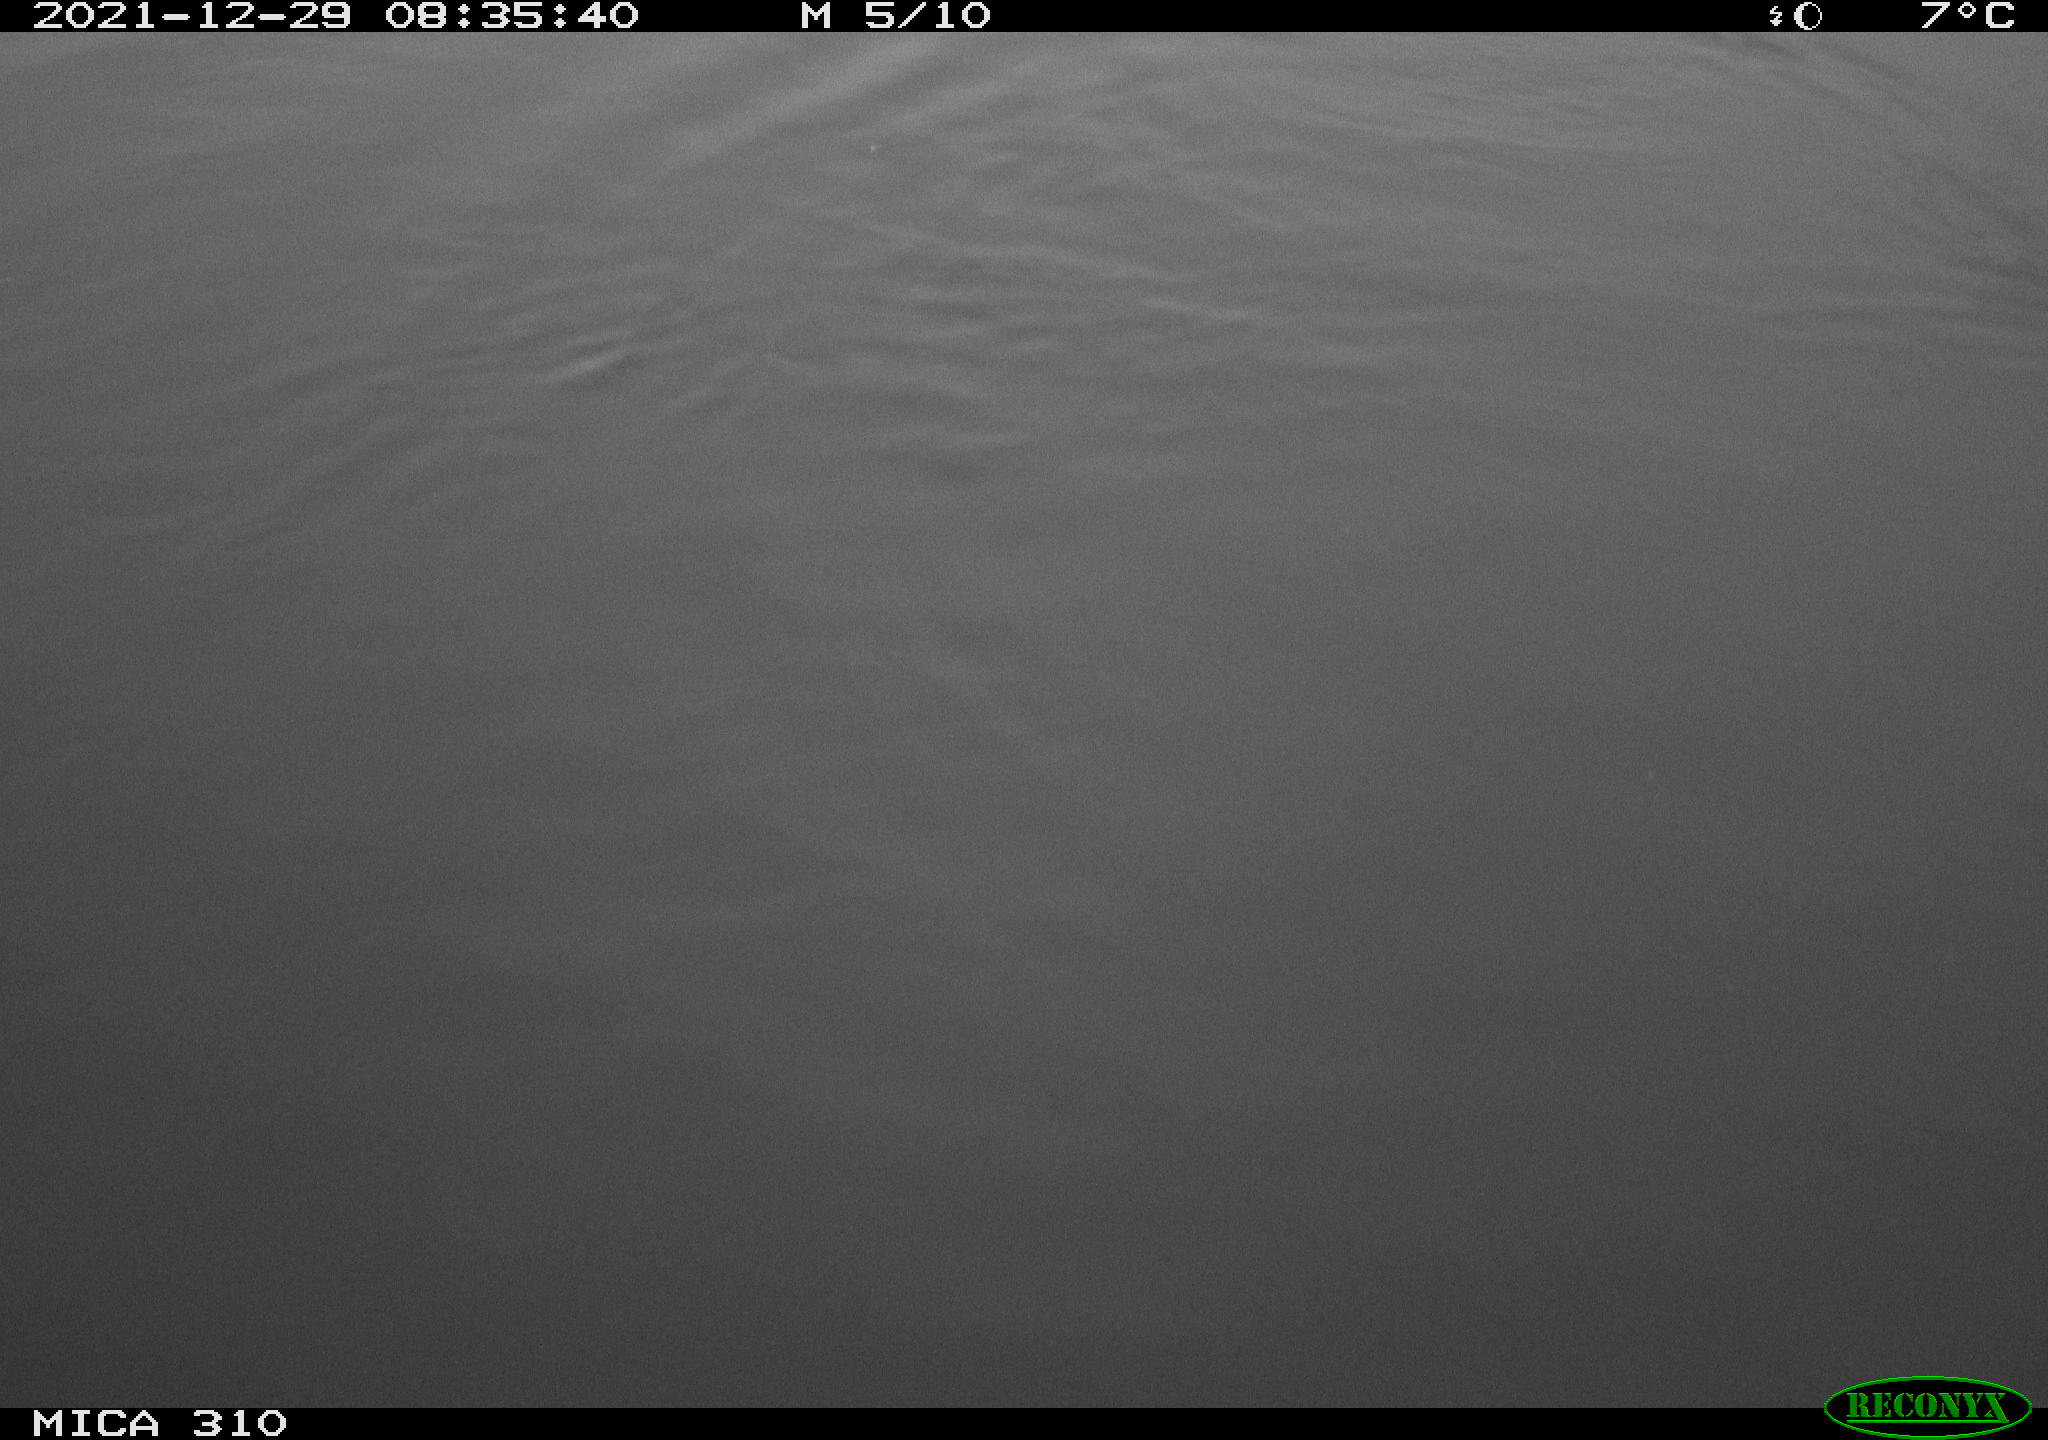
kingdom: Animalia
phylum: Chordata
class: Aves
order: Gruiformes
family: Rallidae
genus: Fulica
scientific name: Fulica atra
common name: Eurasian coot
